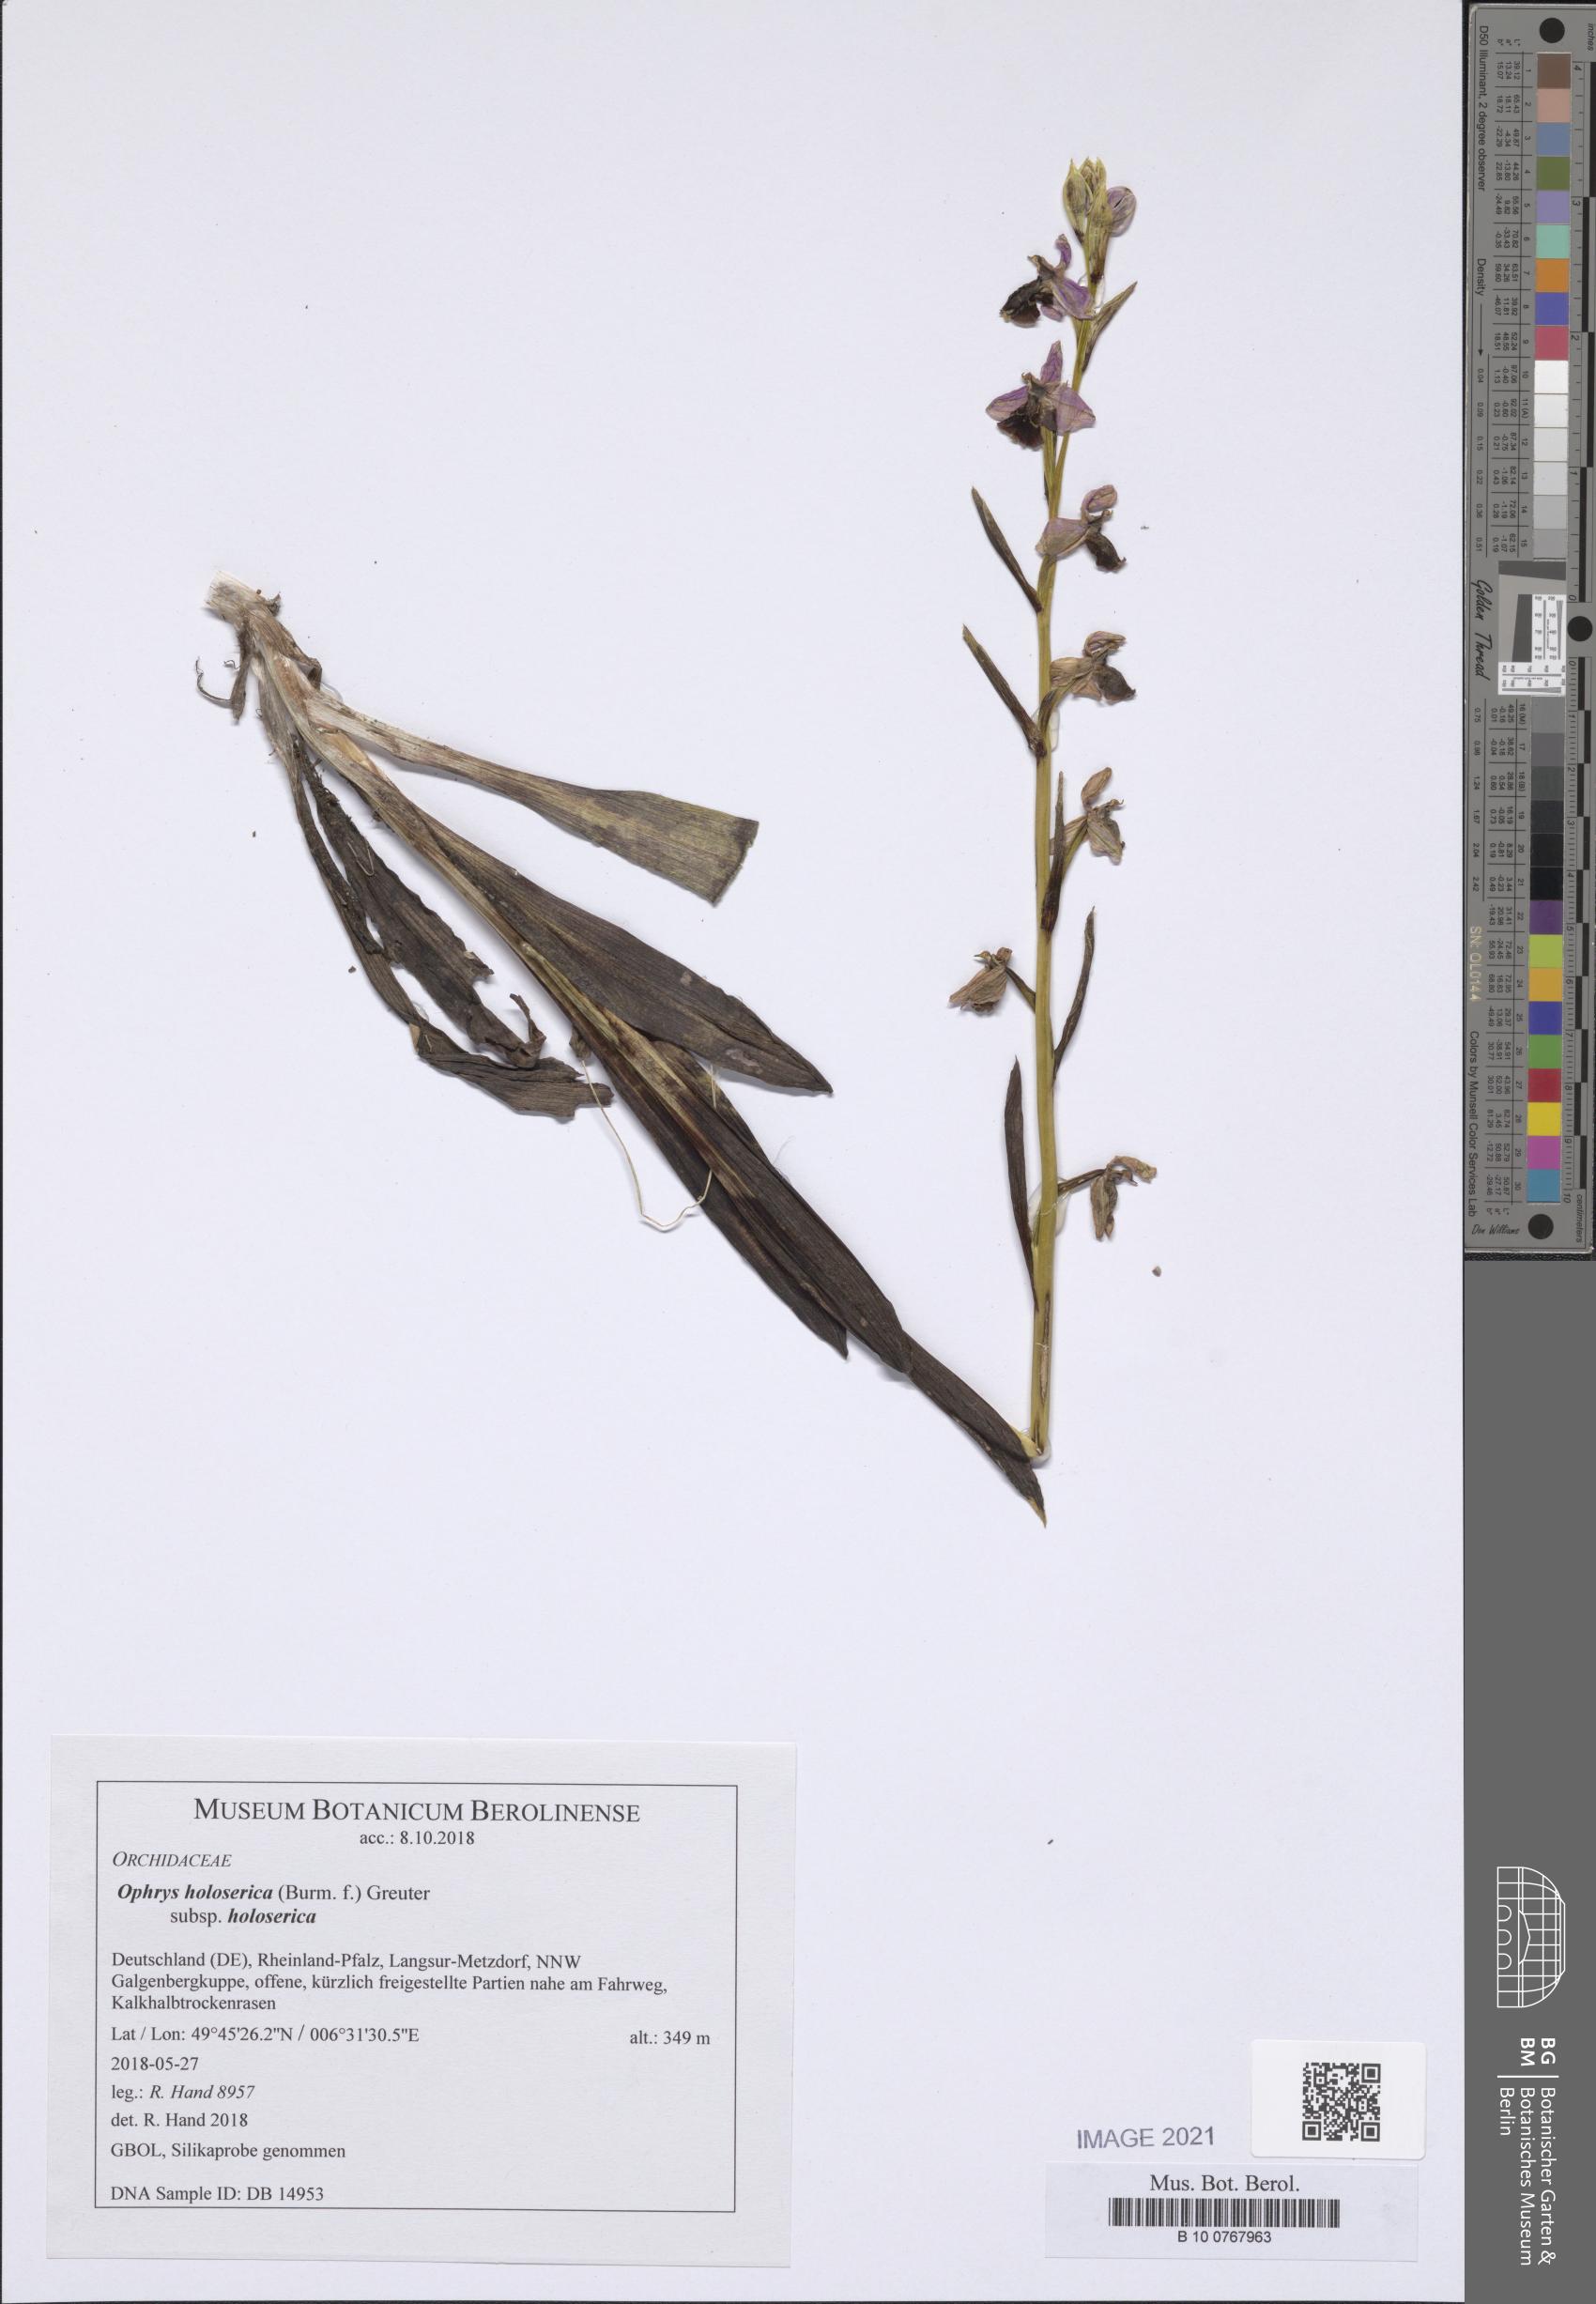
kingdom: Plantae
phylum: Tracheophyta
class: Liliopsida
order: Asparagales
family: Orchidaceae
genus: Ophrys
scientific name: Ophrys holosericea
